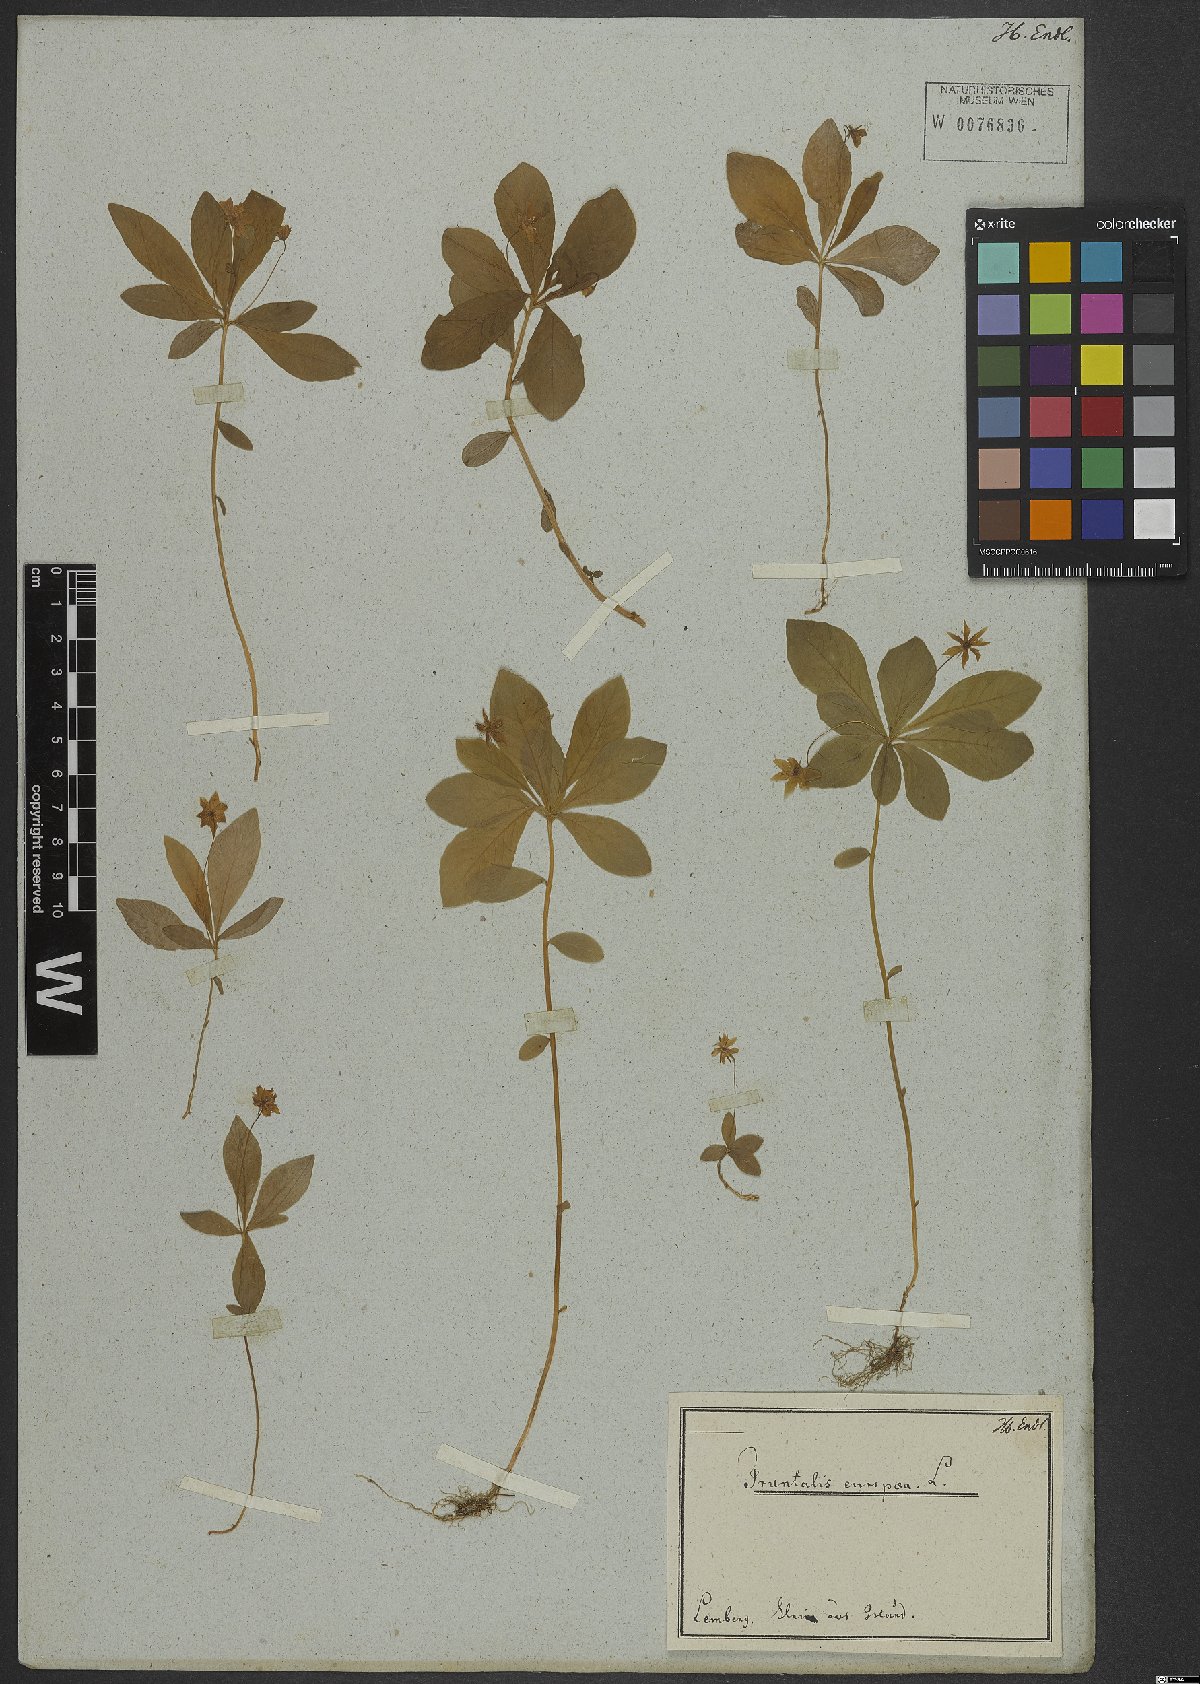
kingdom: Plantae
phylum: Tracheophyta
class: Magnoliopsida
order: Ericales
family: Primulaceae
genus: Lysimachia
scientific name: Lysimachia europaea
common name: Arctic starflower
